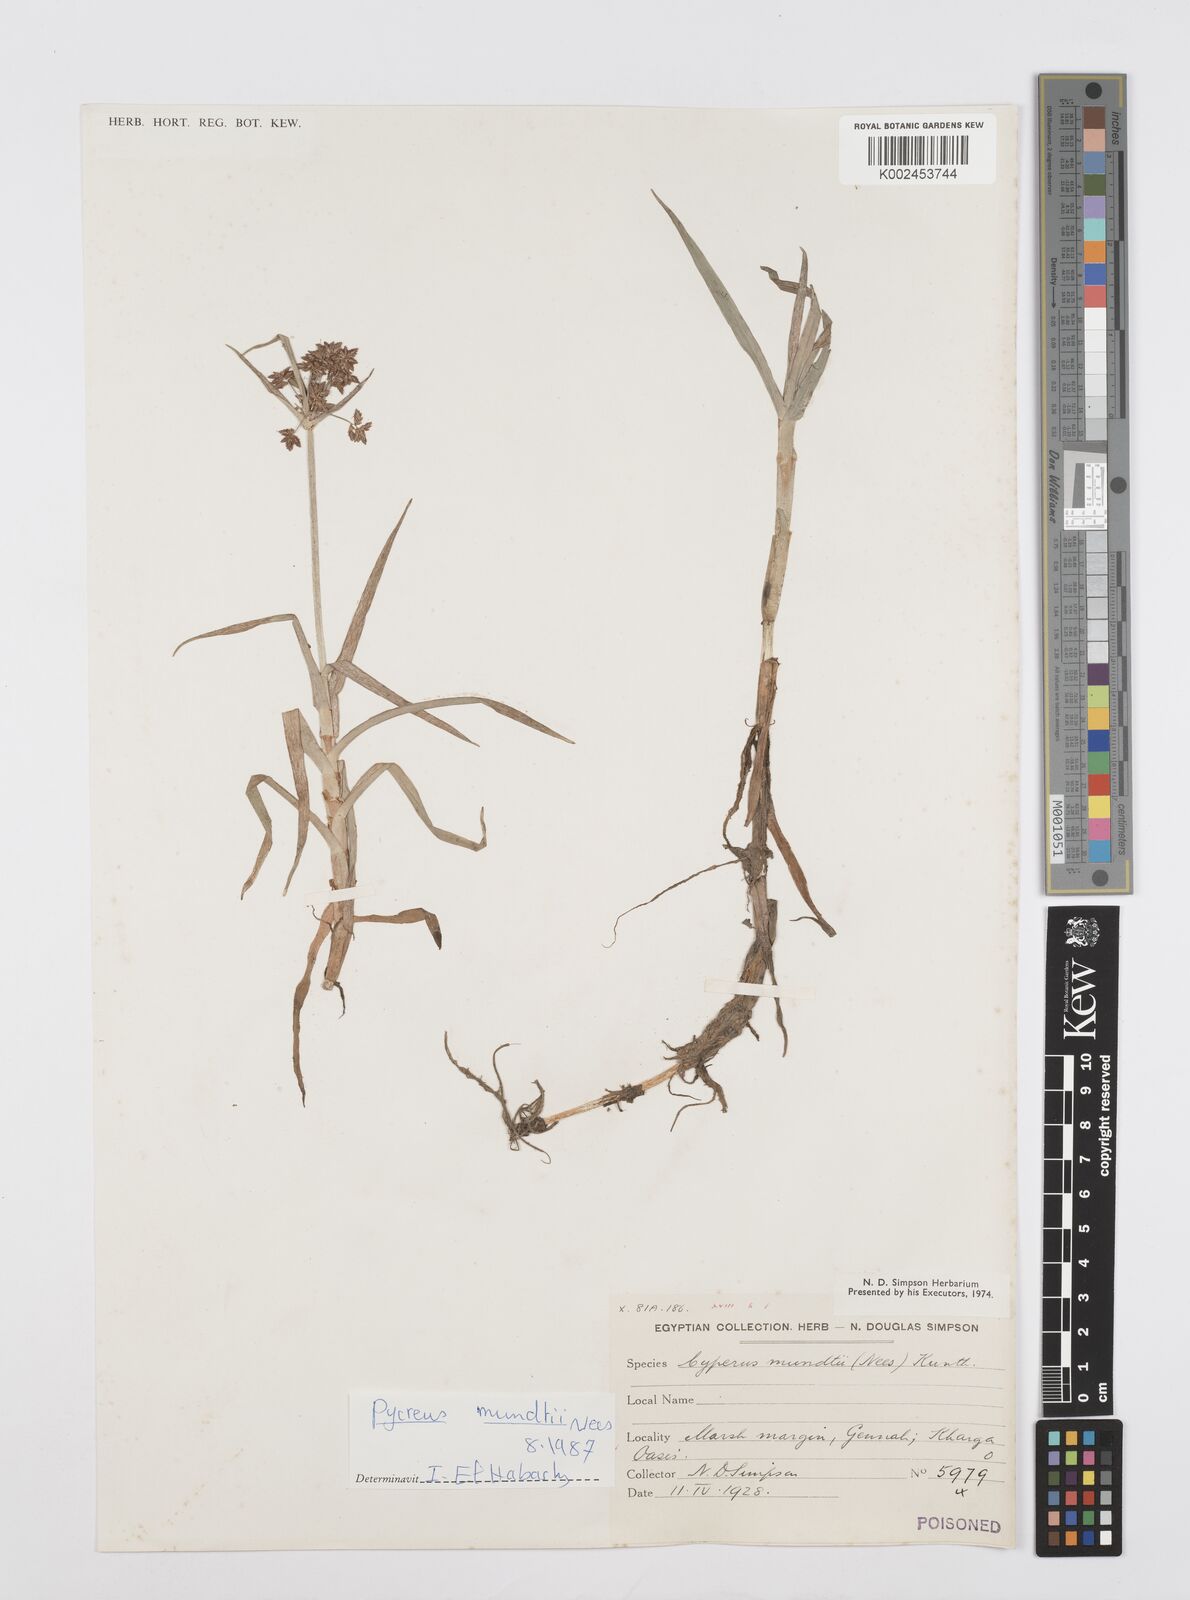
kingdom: Plantae
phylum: Tracheophyta
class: Liliopsida
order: Poales
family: Cyperaceae
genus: Cyperus
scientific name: Cyperus mundii
